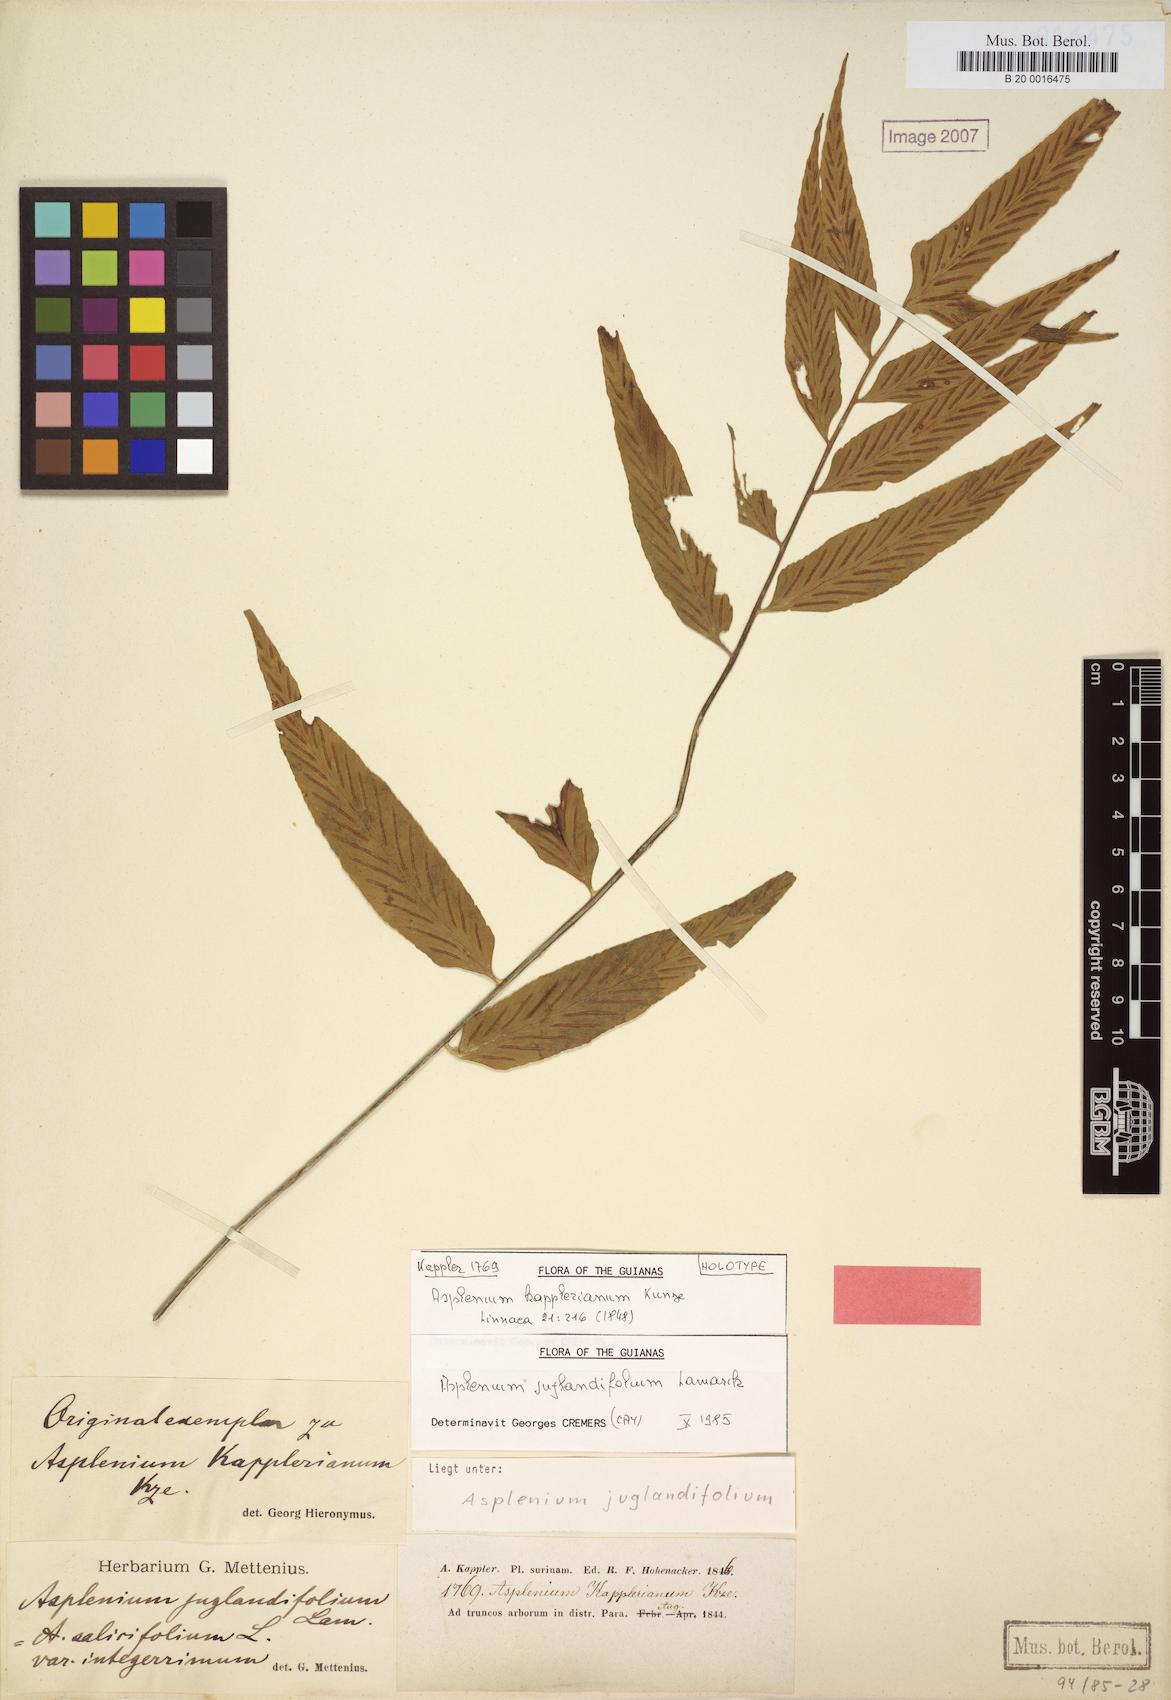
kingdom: Plantae
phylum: Tracheophyta
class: Polypodiopsida
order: Polypodiales
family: Aspleniaceae
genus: Asplenium
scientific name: Asplenium juglandifolium
